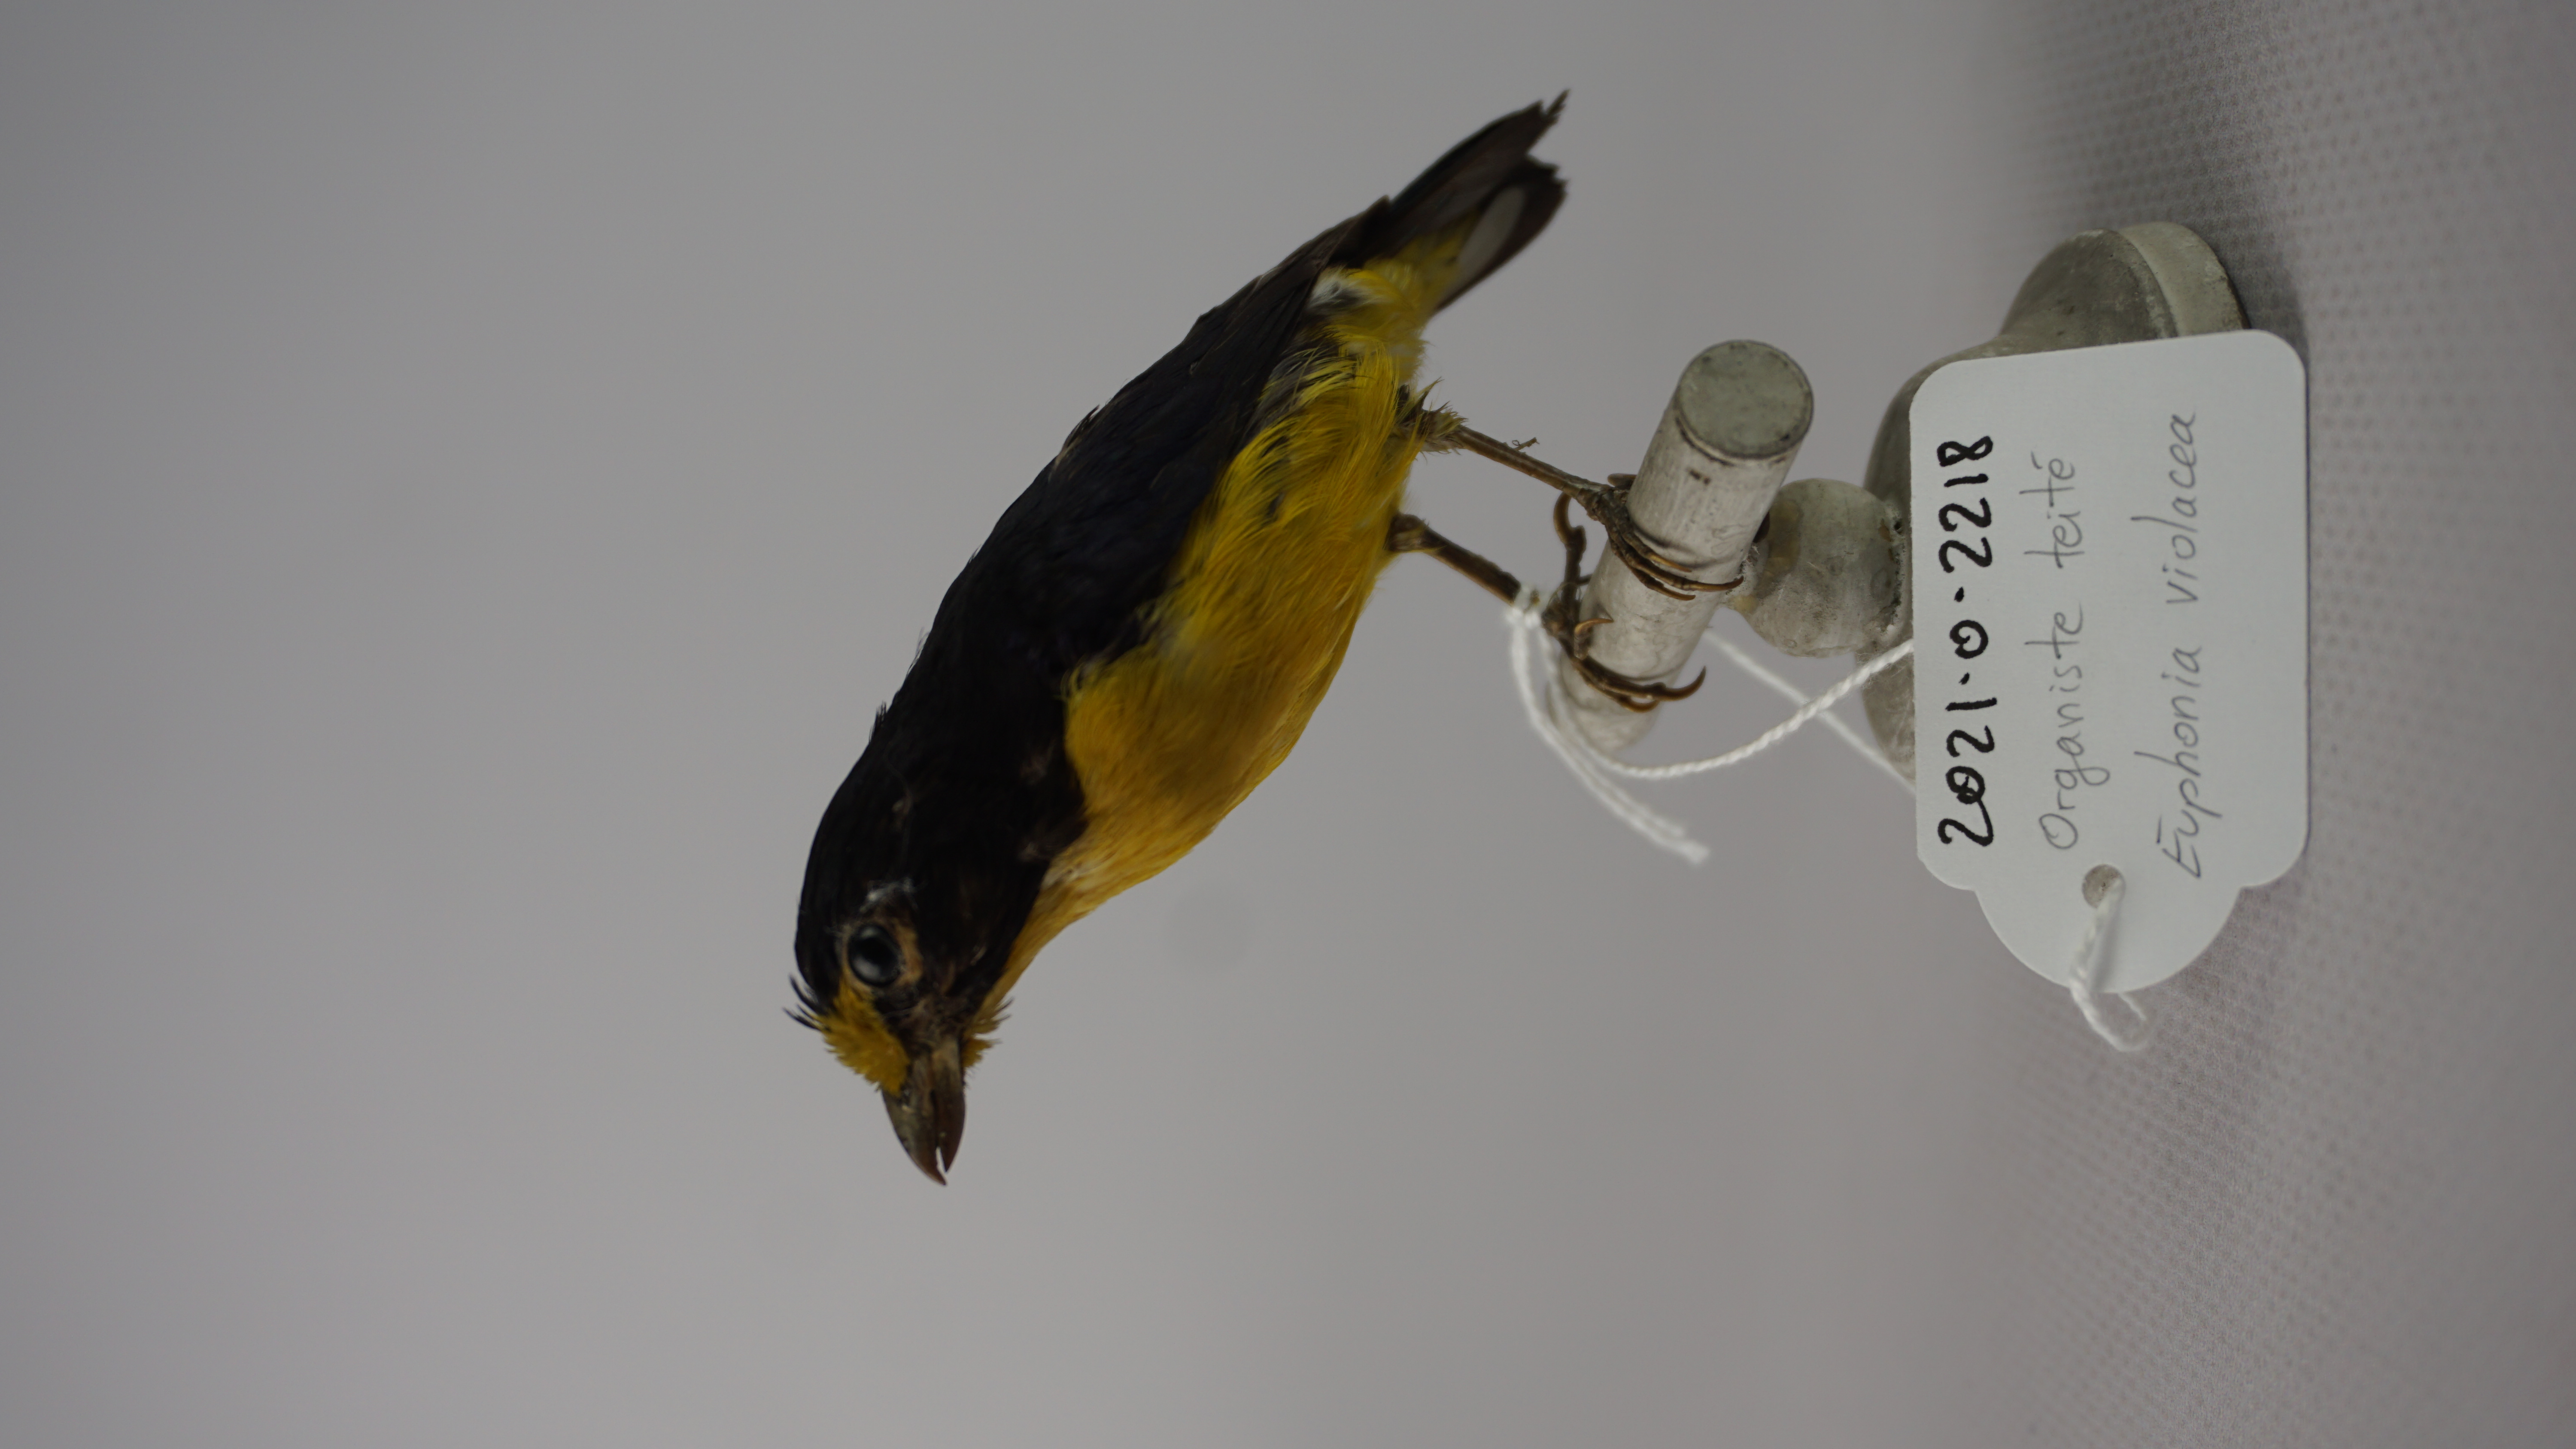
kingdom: Animalia
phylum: Chordata
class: Aves
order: Passeriformes
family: Fringillidae
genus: Euphonia
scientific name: Euphonia violacea
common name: Violaceous euphonia
